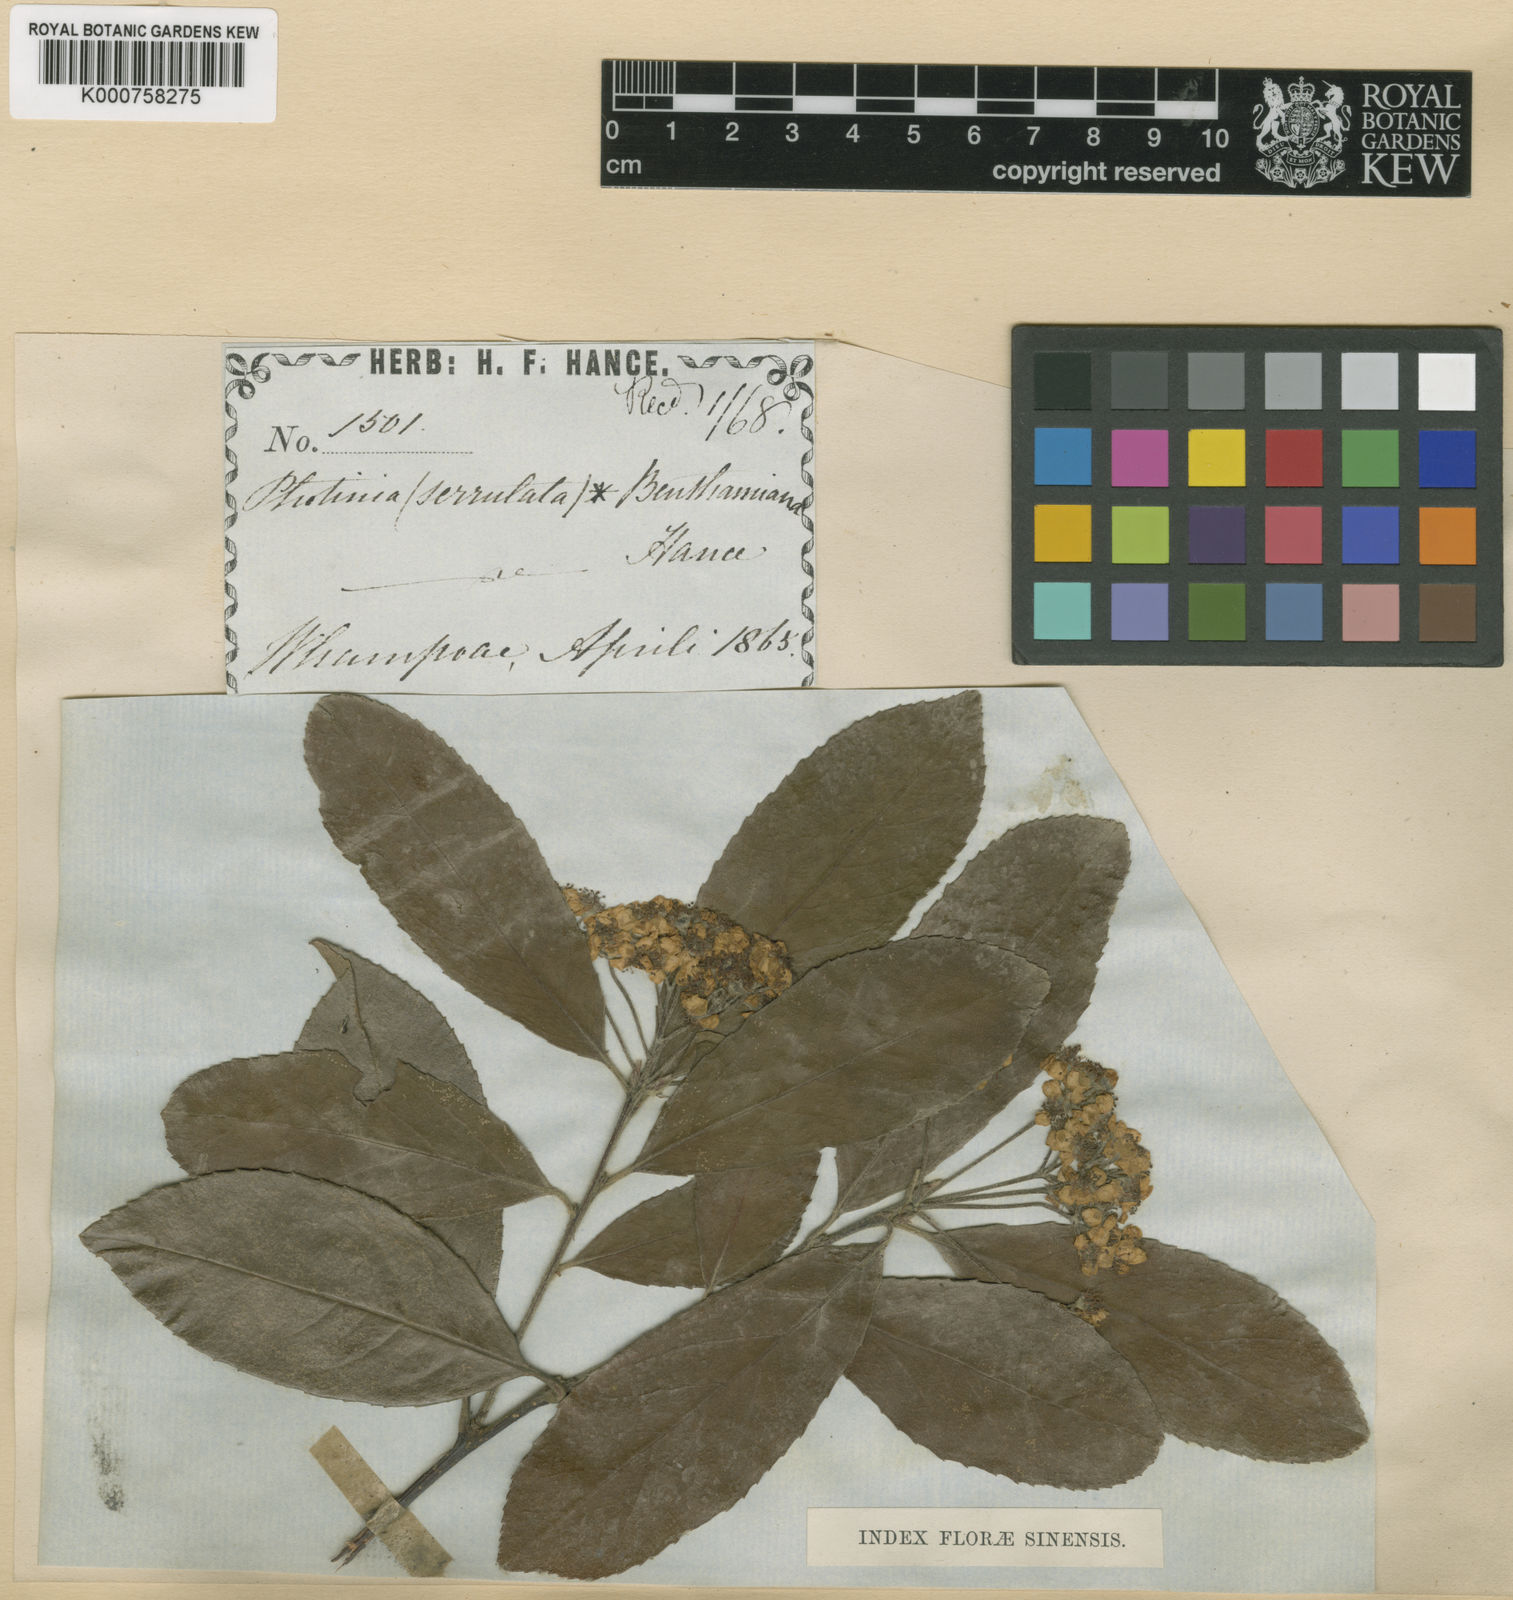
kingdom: Plantae
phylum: Tracheophyta
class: Magnoliopsida
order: Rosales
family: Rosaceae
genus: Pourthiaea
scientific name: Pourthiaea benthamiana
